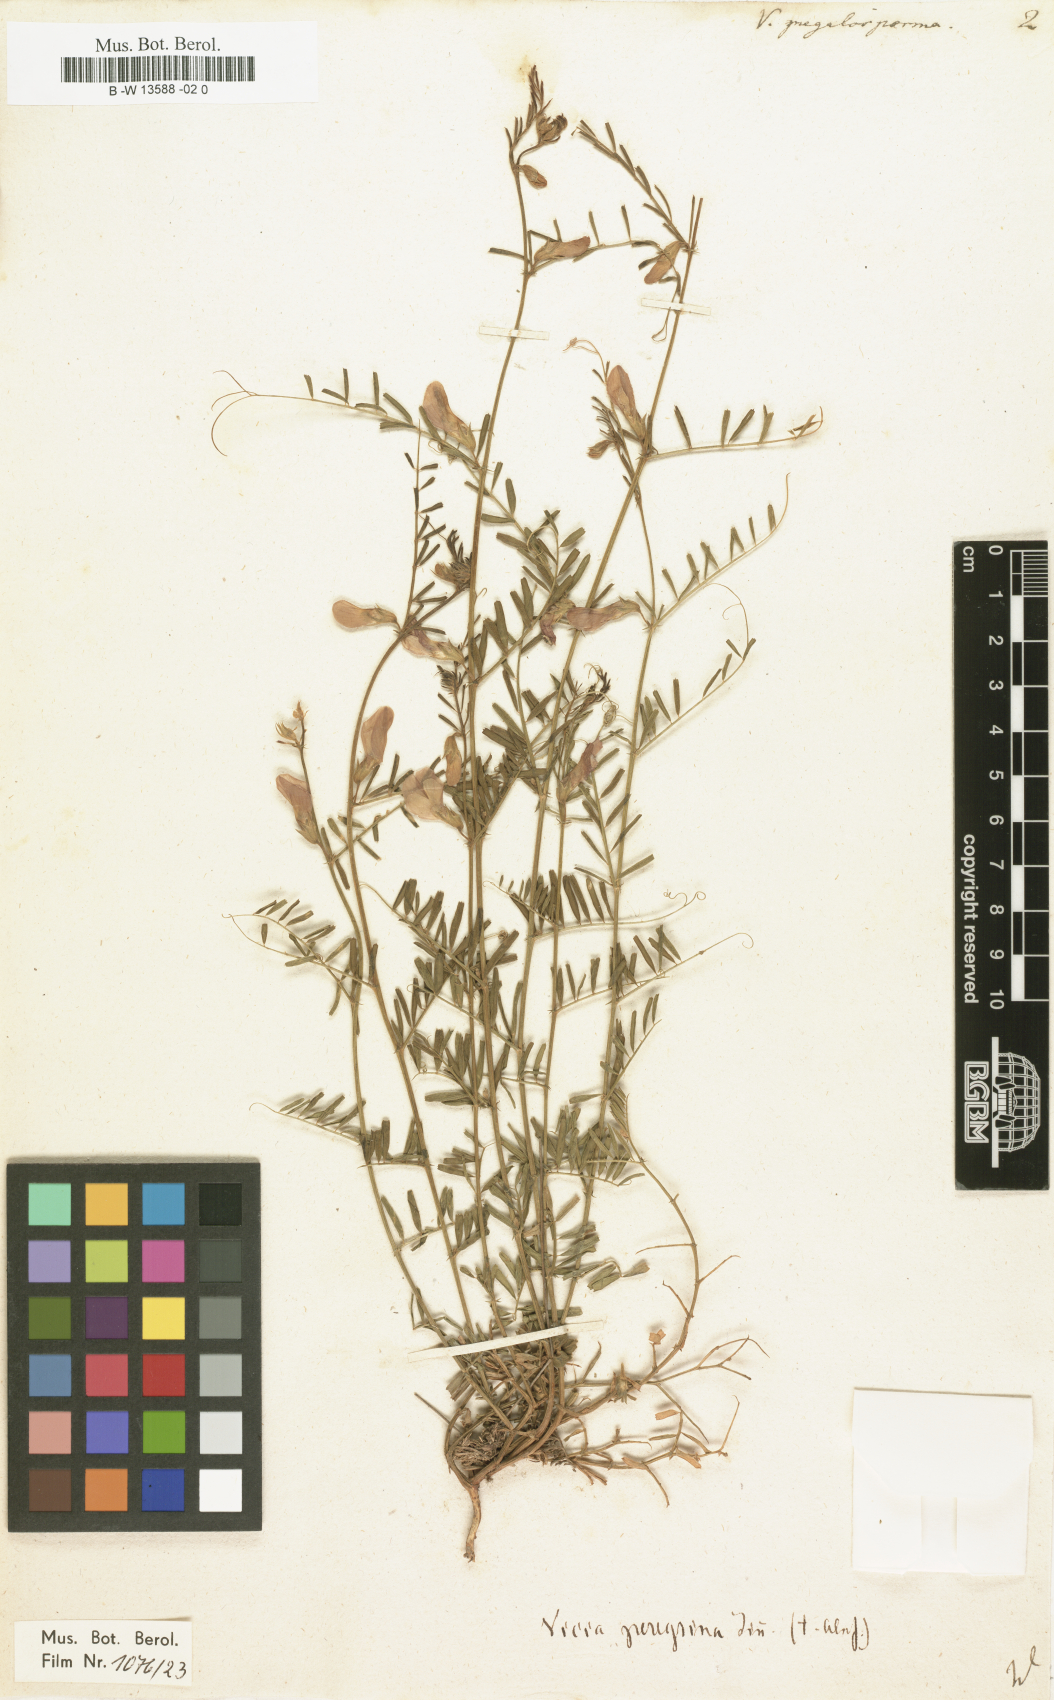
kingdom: Plantae
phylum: Tracheophyta
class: Magnoliopsida
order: Fabales
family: Fabaceae
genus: Vicia
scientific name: Vicia peregrina
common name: Broad-pod vetch
